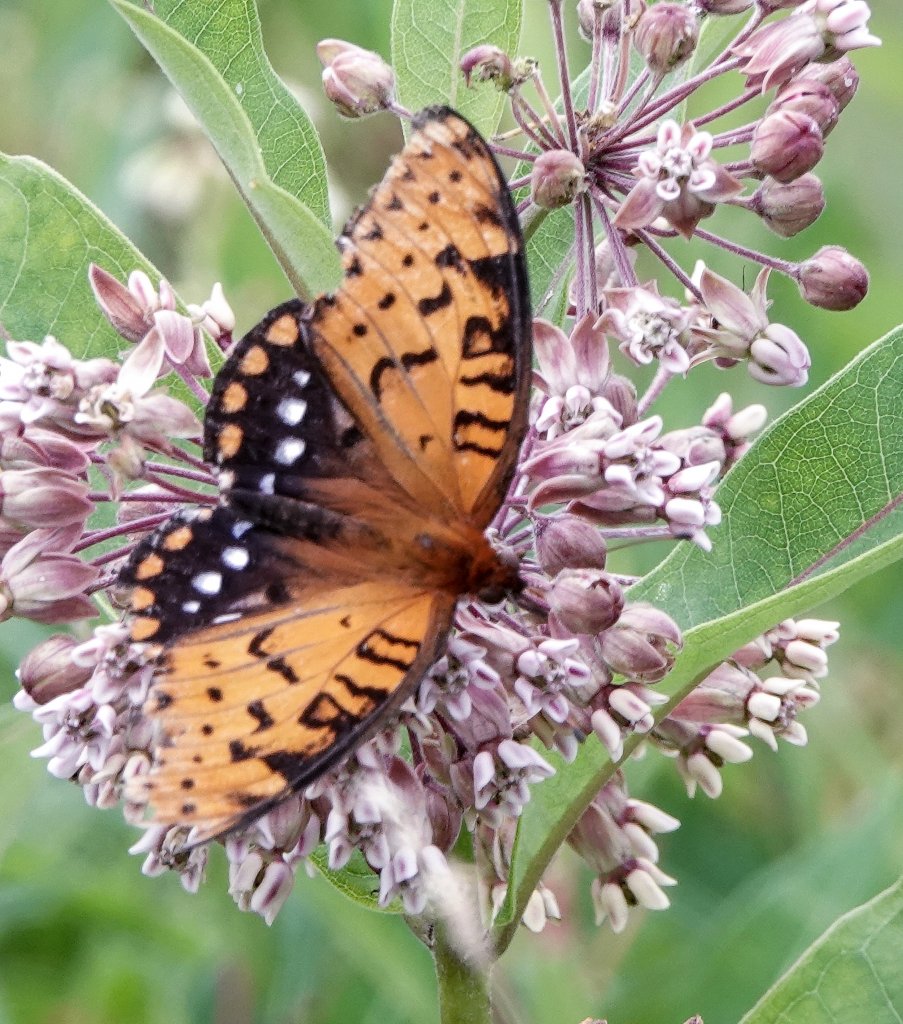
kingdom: Animalia
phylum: Arthropoda
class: Insecta
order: Lepidoptera
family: Nymphalidae
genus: Speyeria
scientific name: Speyeria idalia
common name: Regal Fritillary
